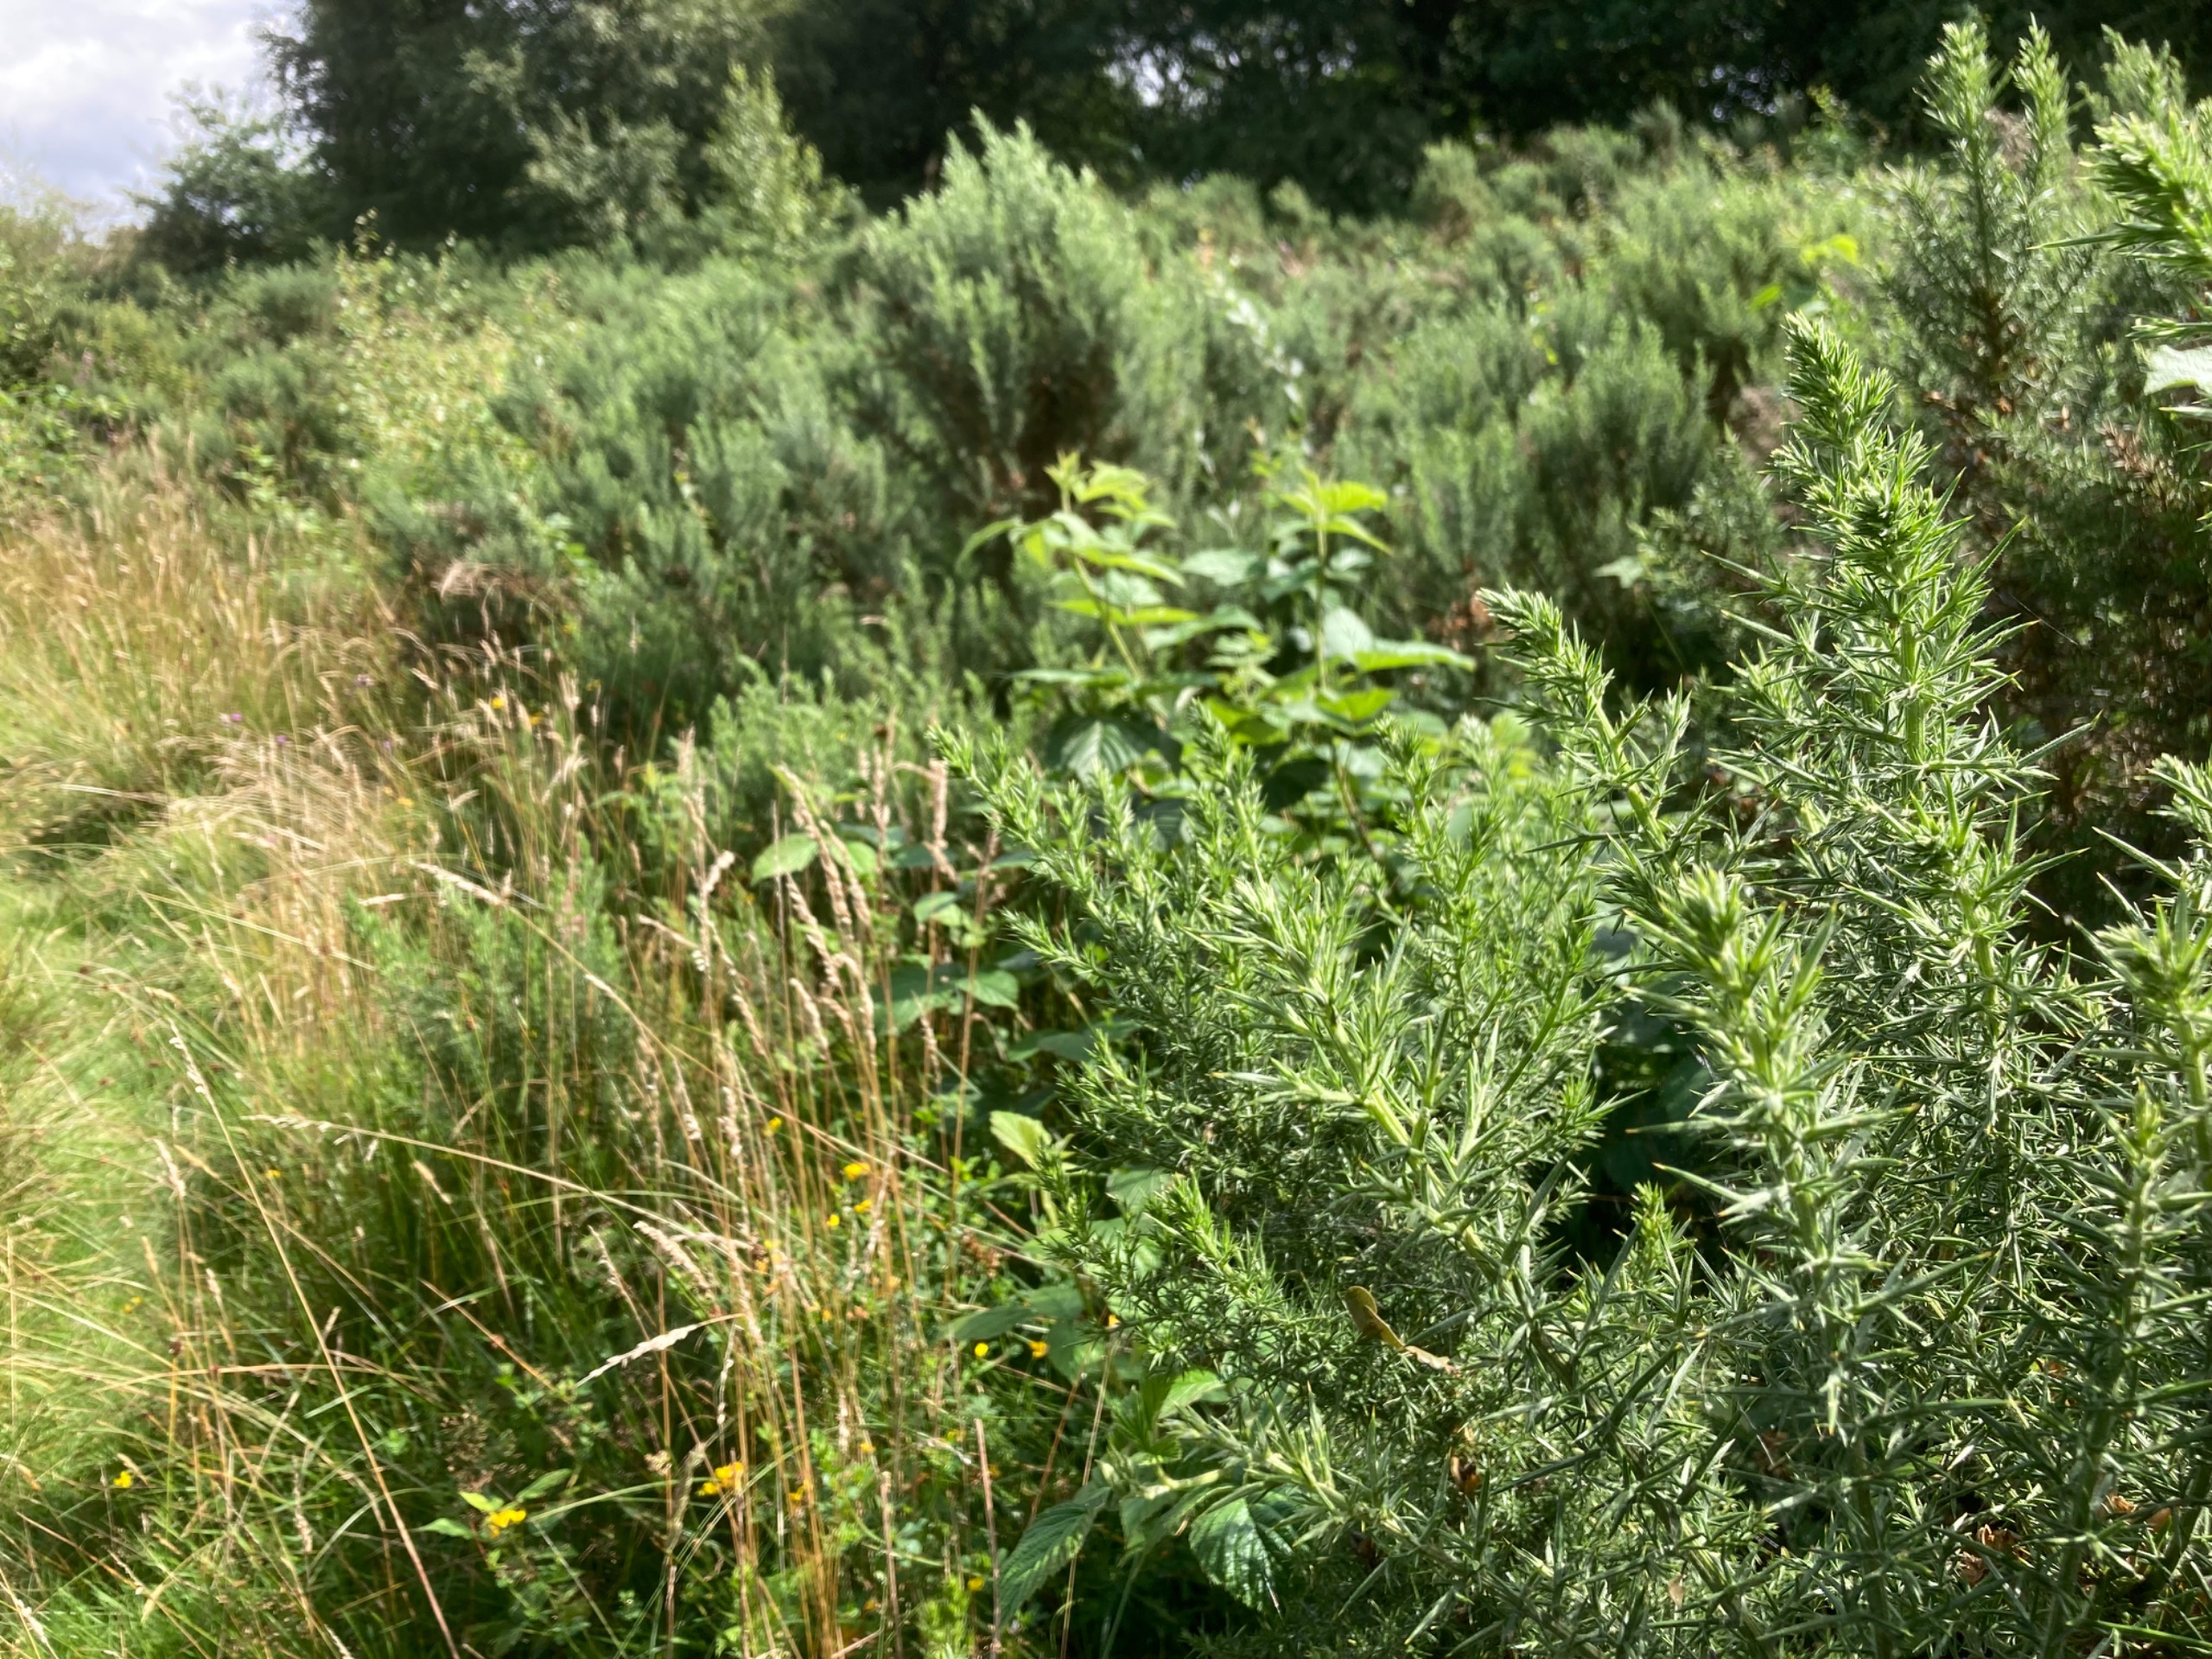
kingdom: Plantae
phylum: Tracheophyta
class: Magnoliopsida
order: Fabales
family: Fabaceae
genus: Ulex
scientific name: Ulex europaeus
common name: Tornblad
